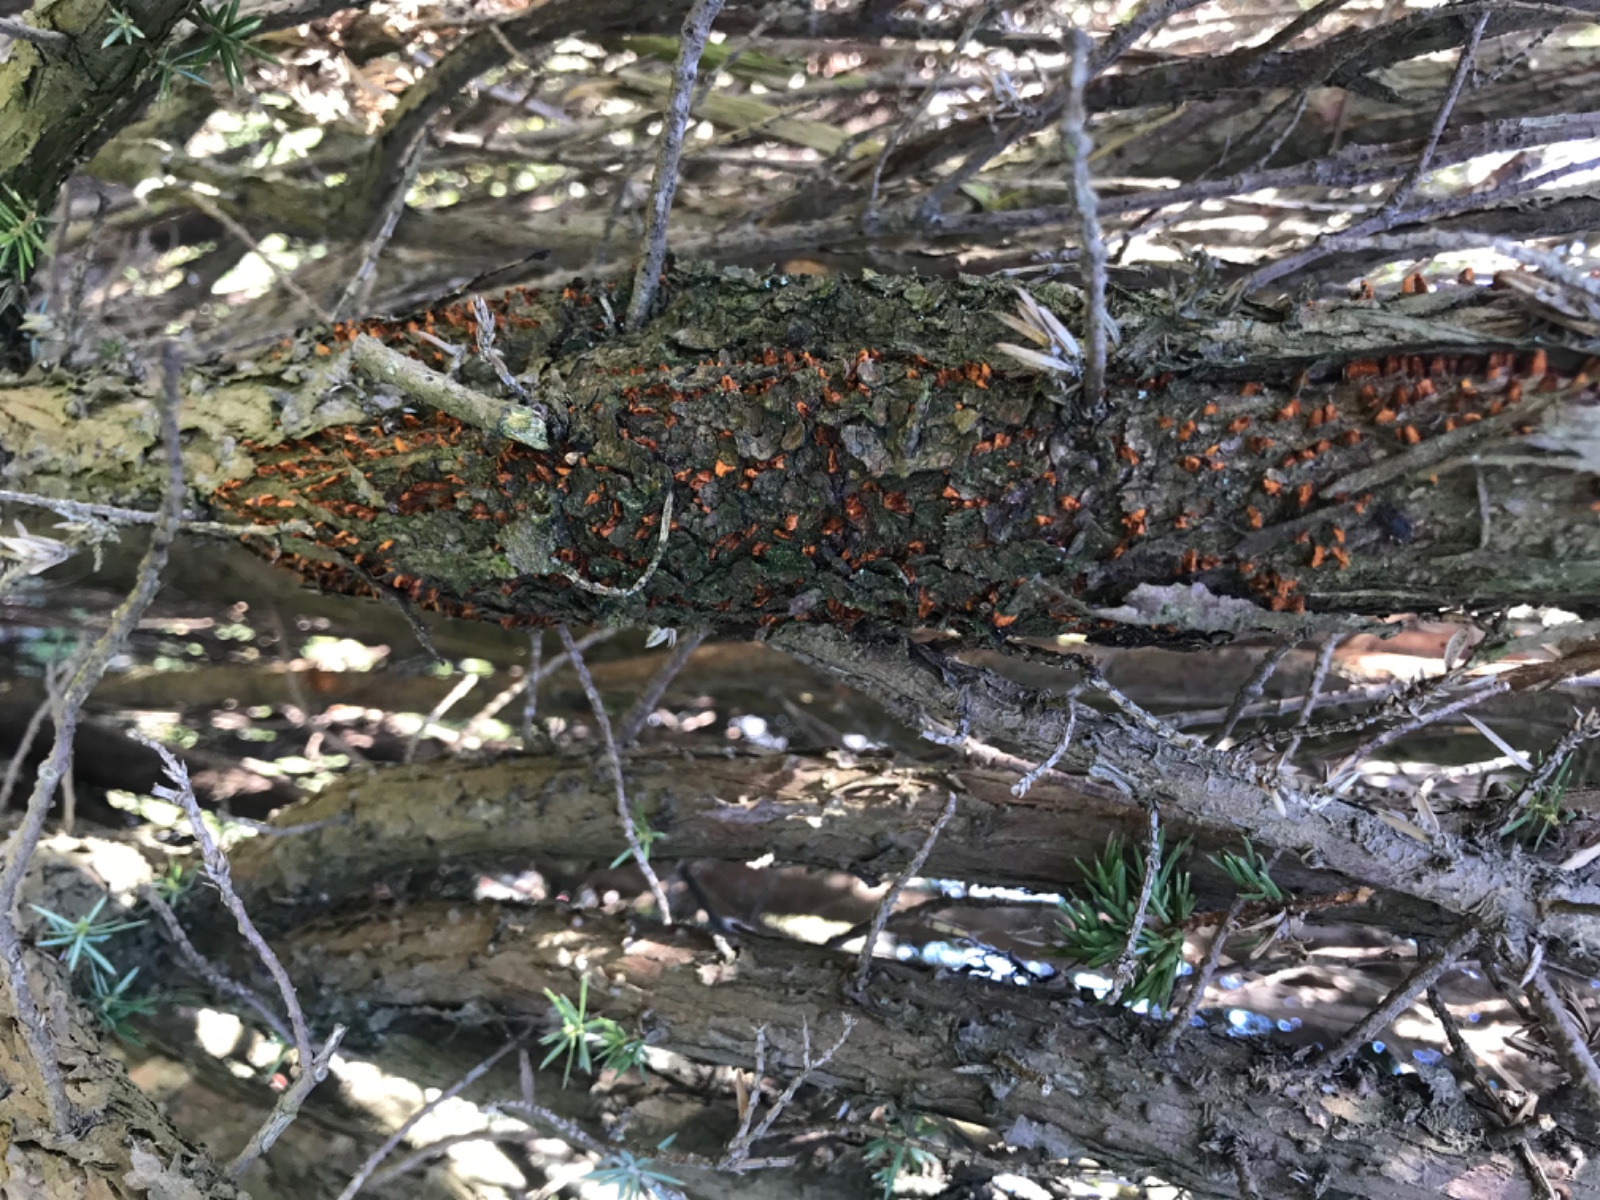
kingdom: Fungi
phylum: Basidiomycota
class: Pucciniomycetes
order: Pucciniales
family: Gymnosporangiaceae
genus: Gymnosporangium
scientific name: Gymnosporangium clavariiforme
